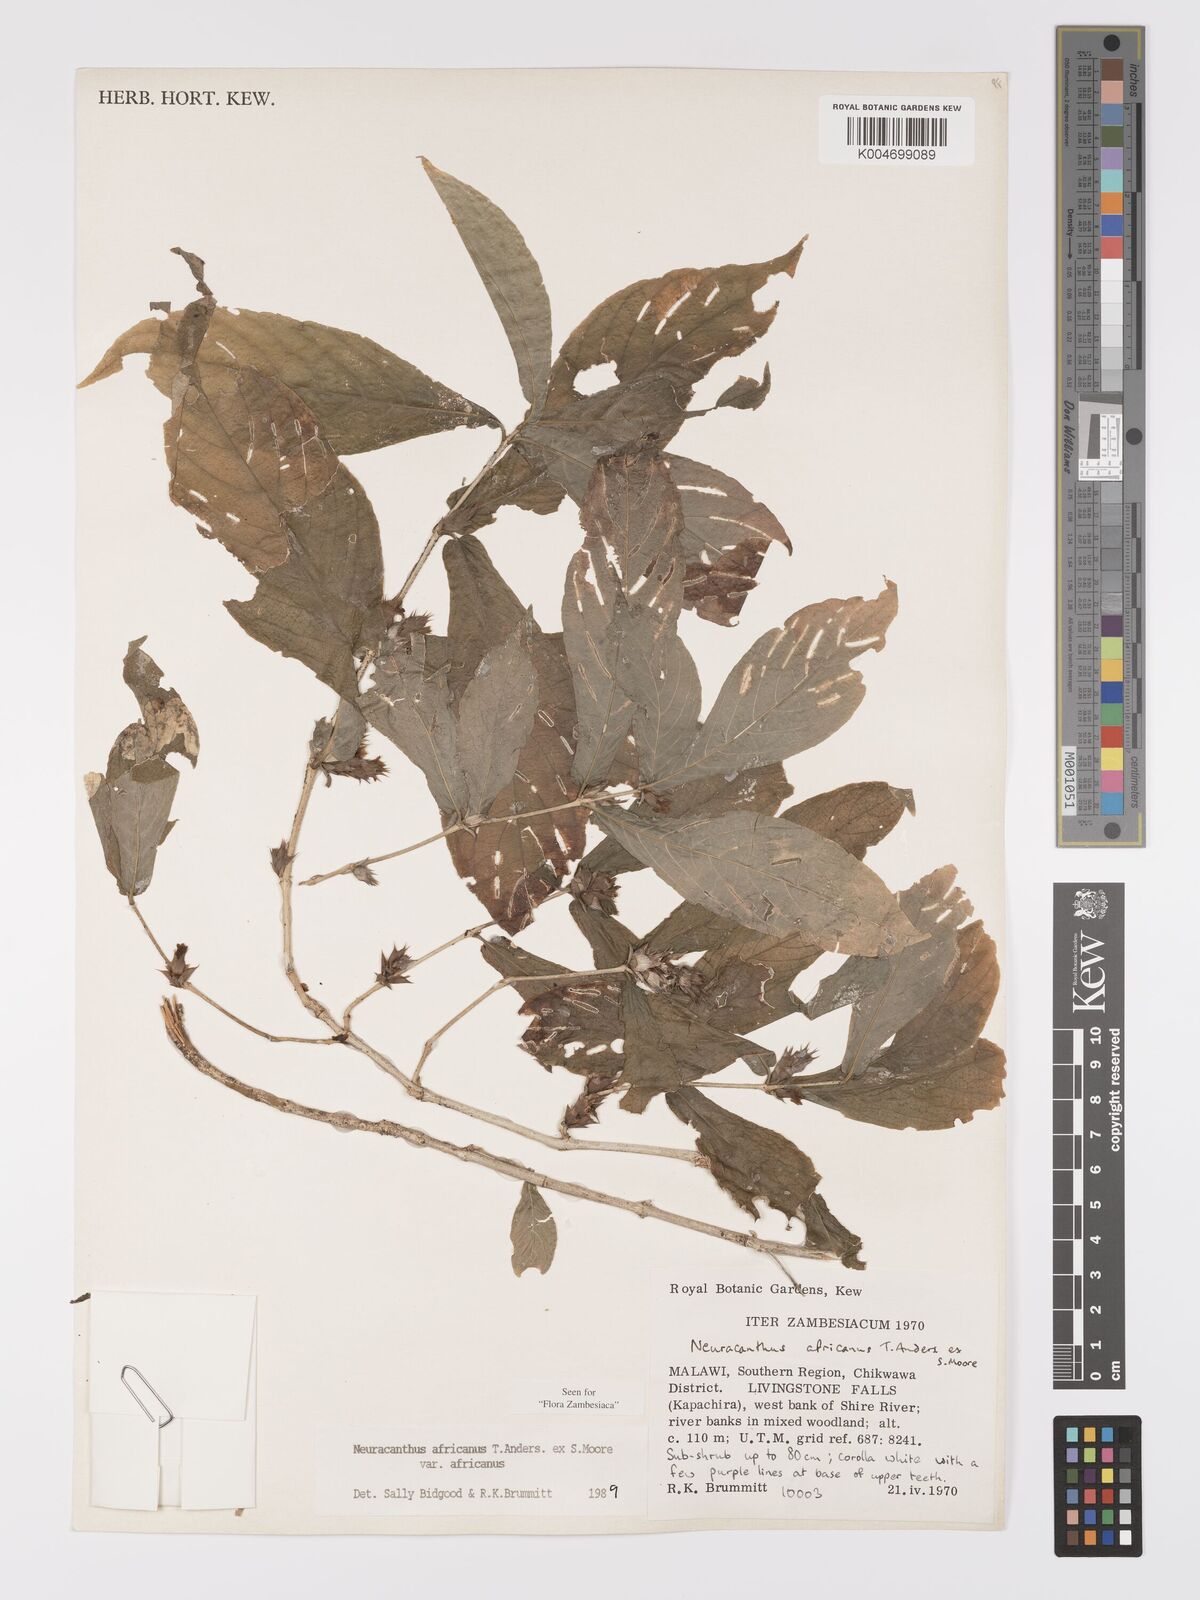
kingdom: Plantae
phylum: Tracheophyta
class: Magnoliopsida
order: Lamiales
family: Acanthaceae
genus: Neuracanthus
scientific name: Neuracanthus africanus
